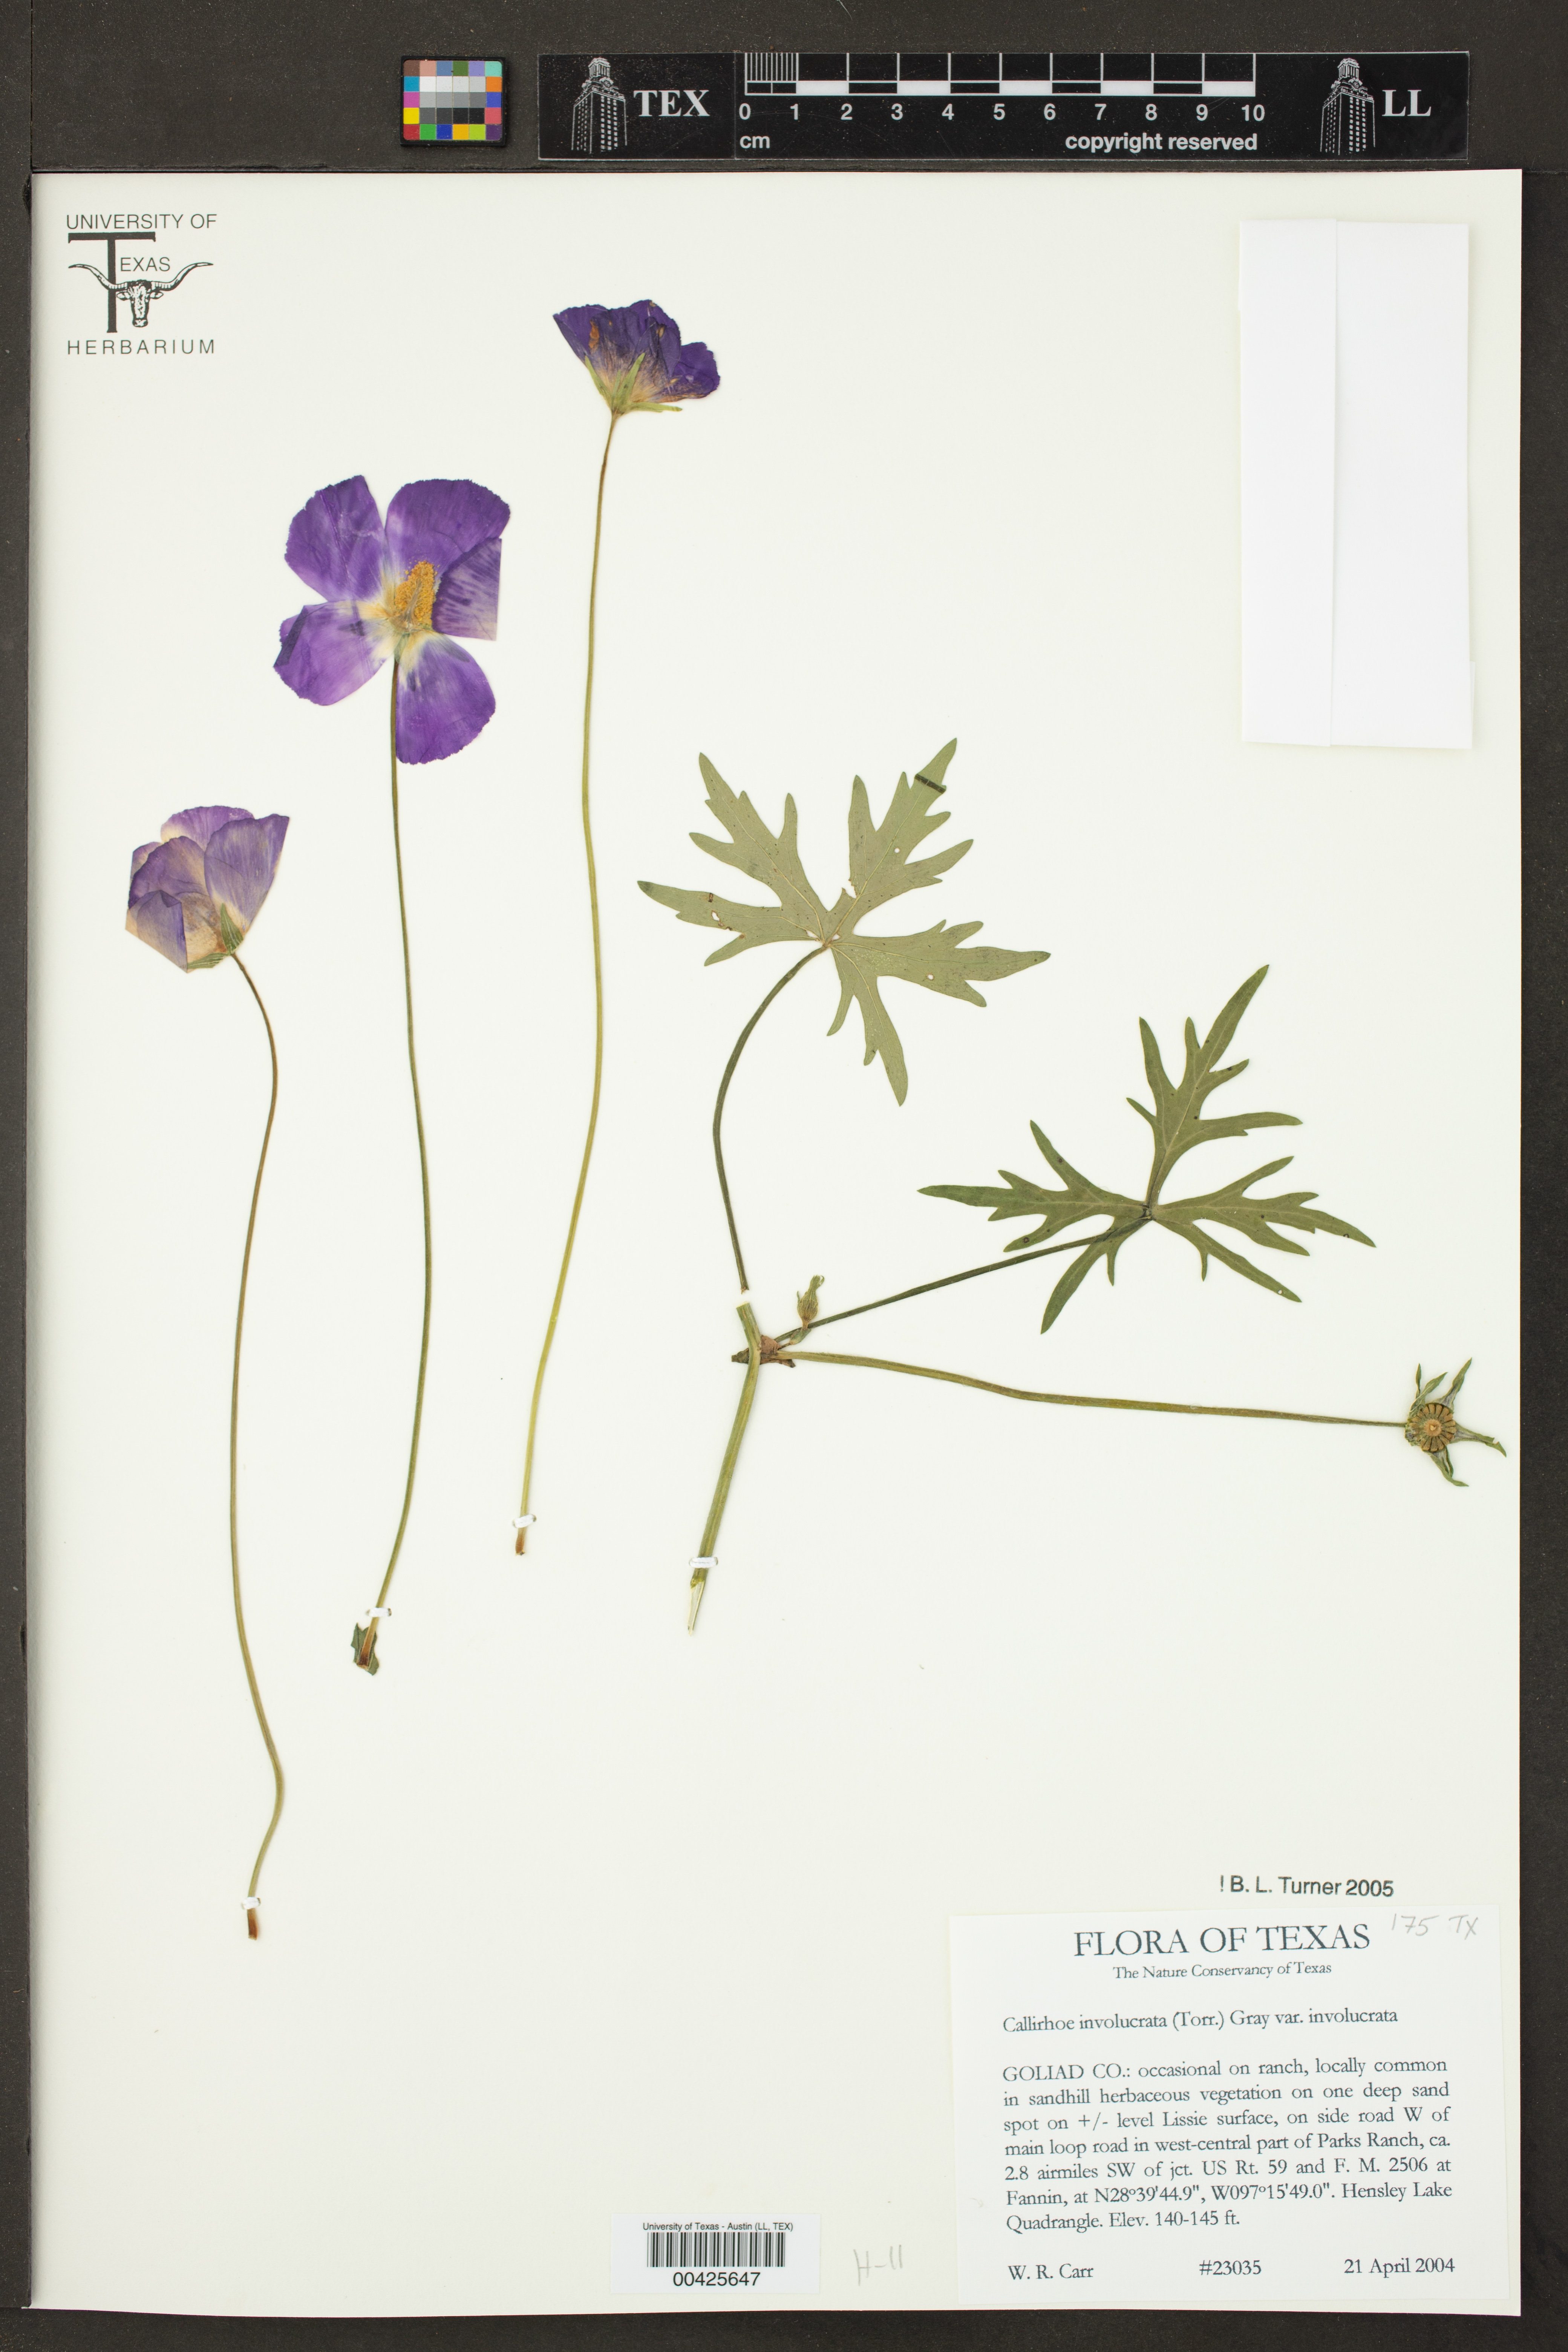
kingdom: Plantae
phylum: Tracheophyta
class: Magnoliopsida
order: Malvales
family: Malvaceae
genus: Callirhoe
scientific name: Callirhoe involucrata
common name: Purple poppy-mallow
